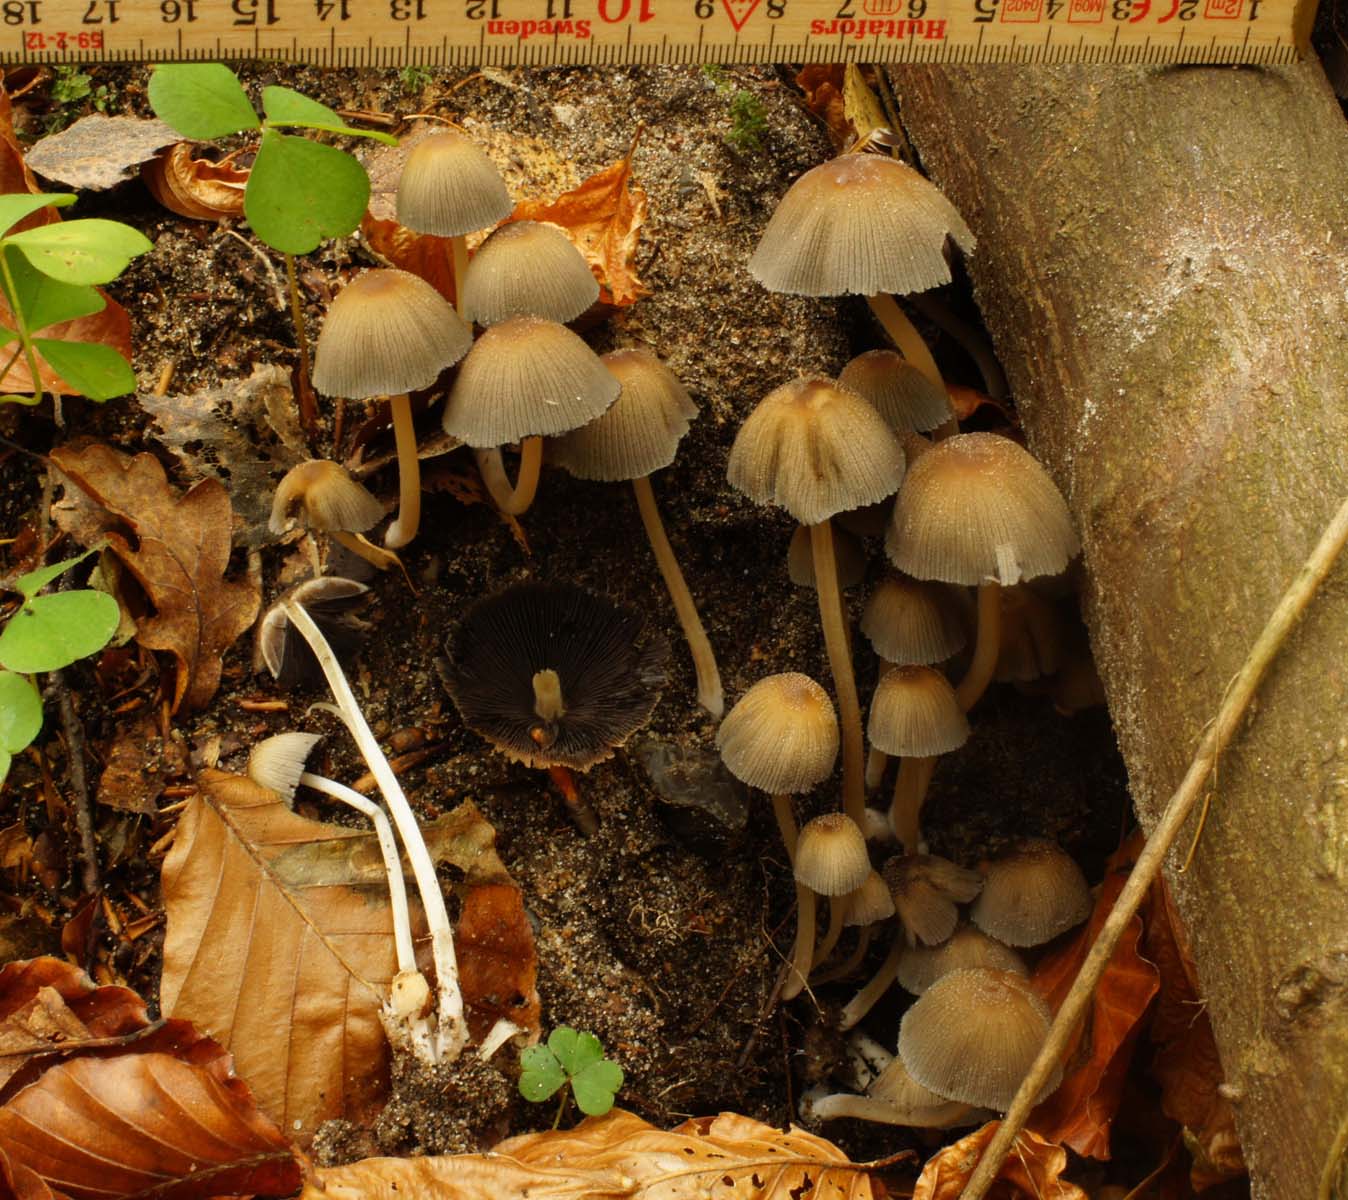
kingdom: Fungi
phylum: Basidiomycota
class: Agaricomycetes
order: Agaricales
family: Psathyrellaceae
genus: Coprinellus
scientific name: Coprinellus micaceus
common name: glimmer-blækhat
